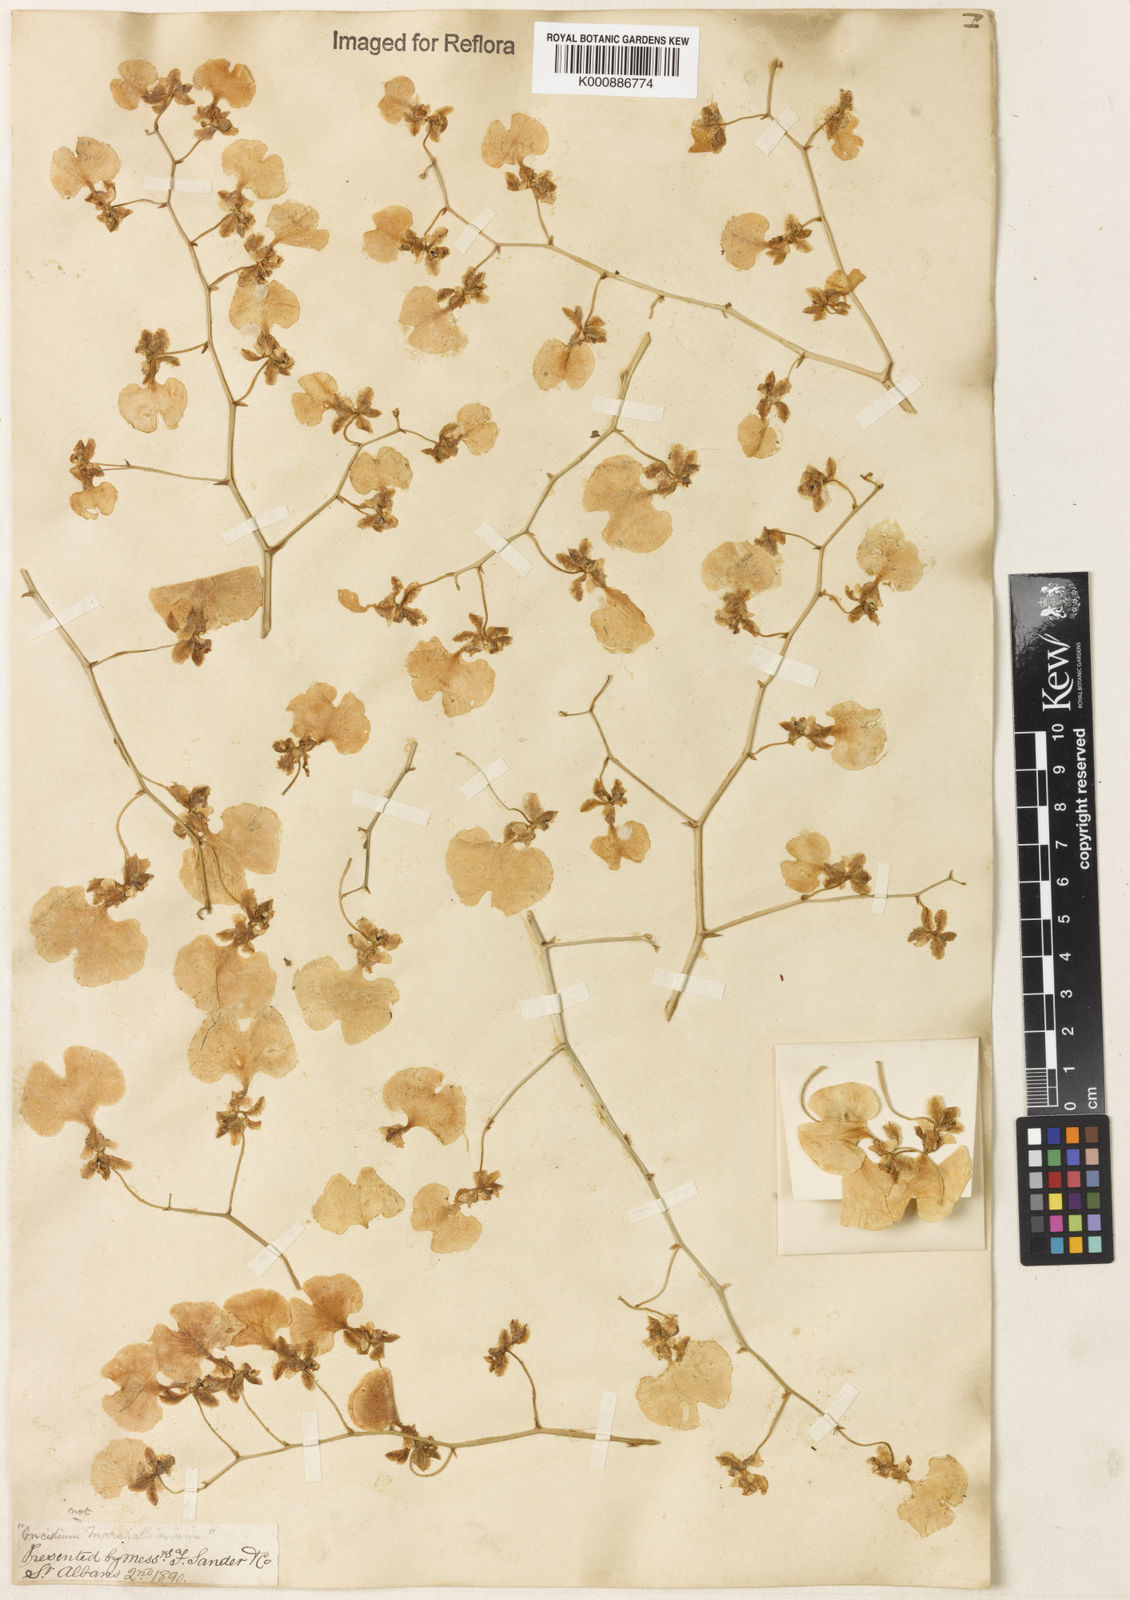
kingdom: Plantae
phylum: Tracheophyta
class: Liliopsida
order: Asparagales
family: Orchidaceae
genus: Gomesa
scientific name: Gomesa bicolor
